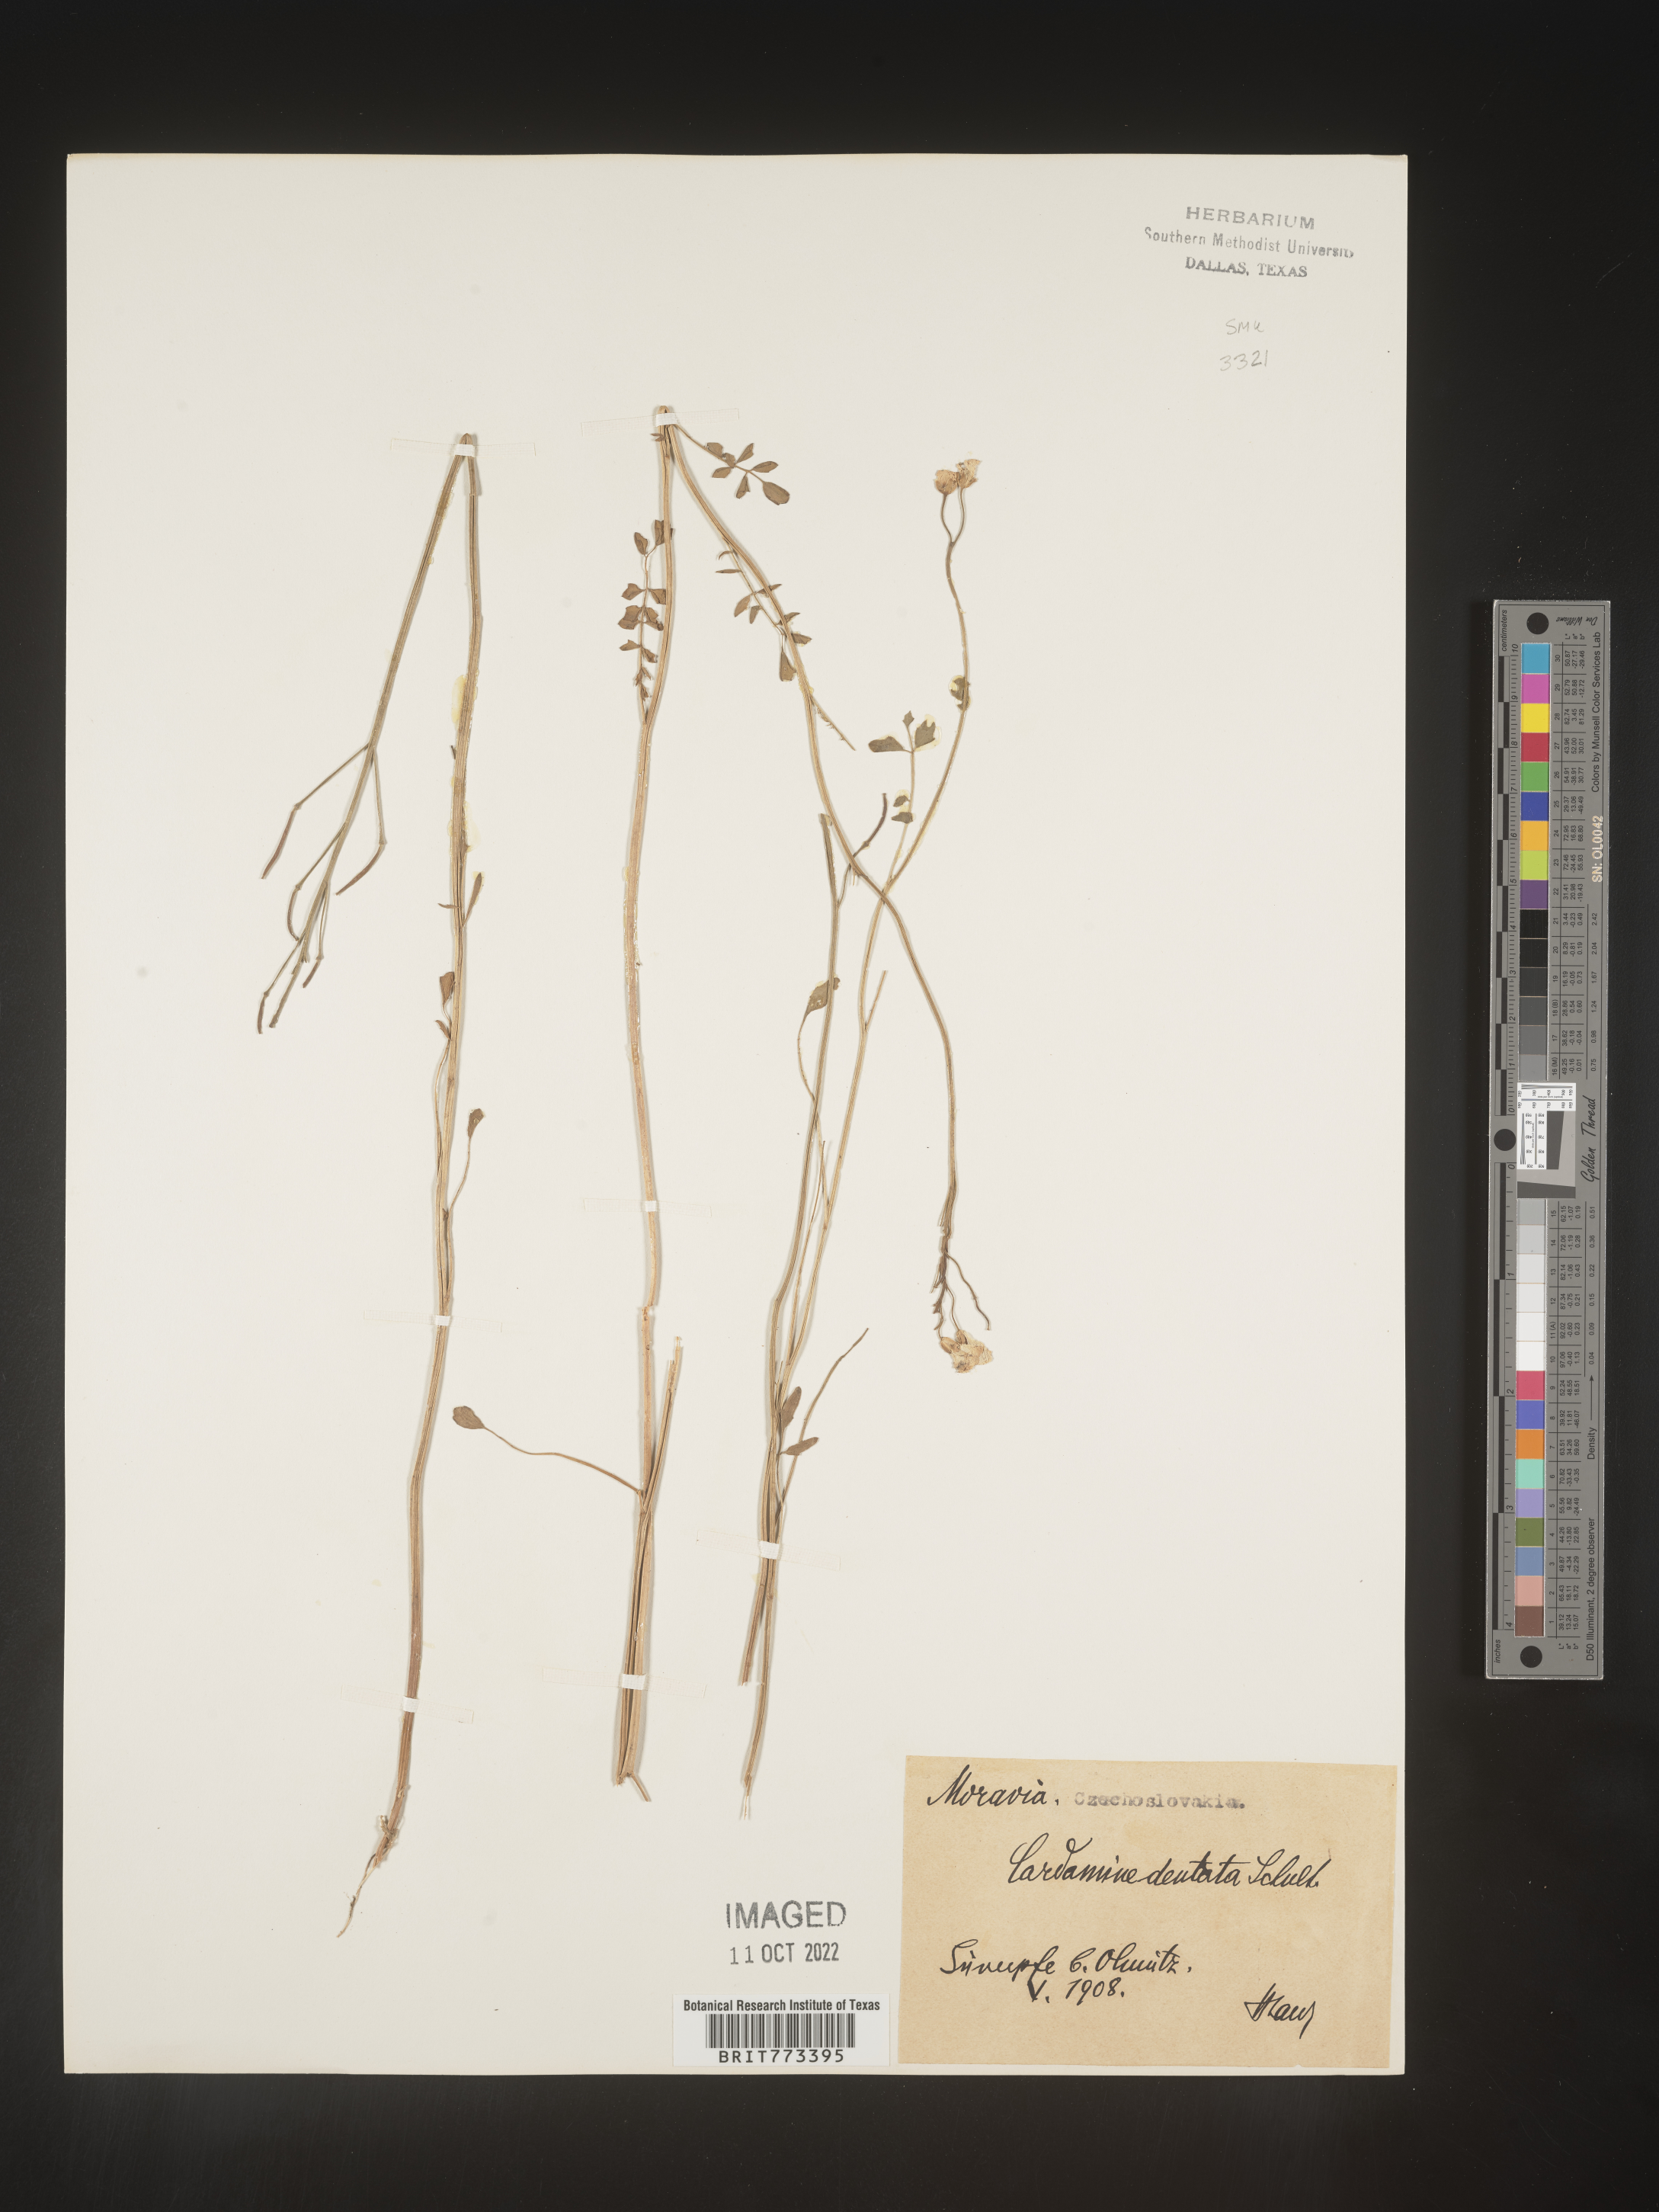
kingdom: Plantae
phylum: Tracheophyta
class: Magnoliopsida
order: Brassicales
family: Brassicaceae
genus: Cardamine
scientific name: Cardamine
